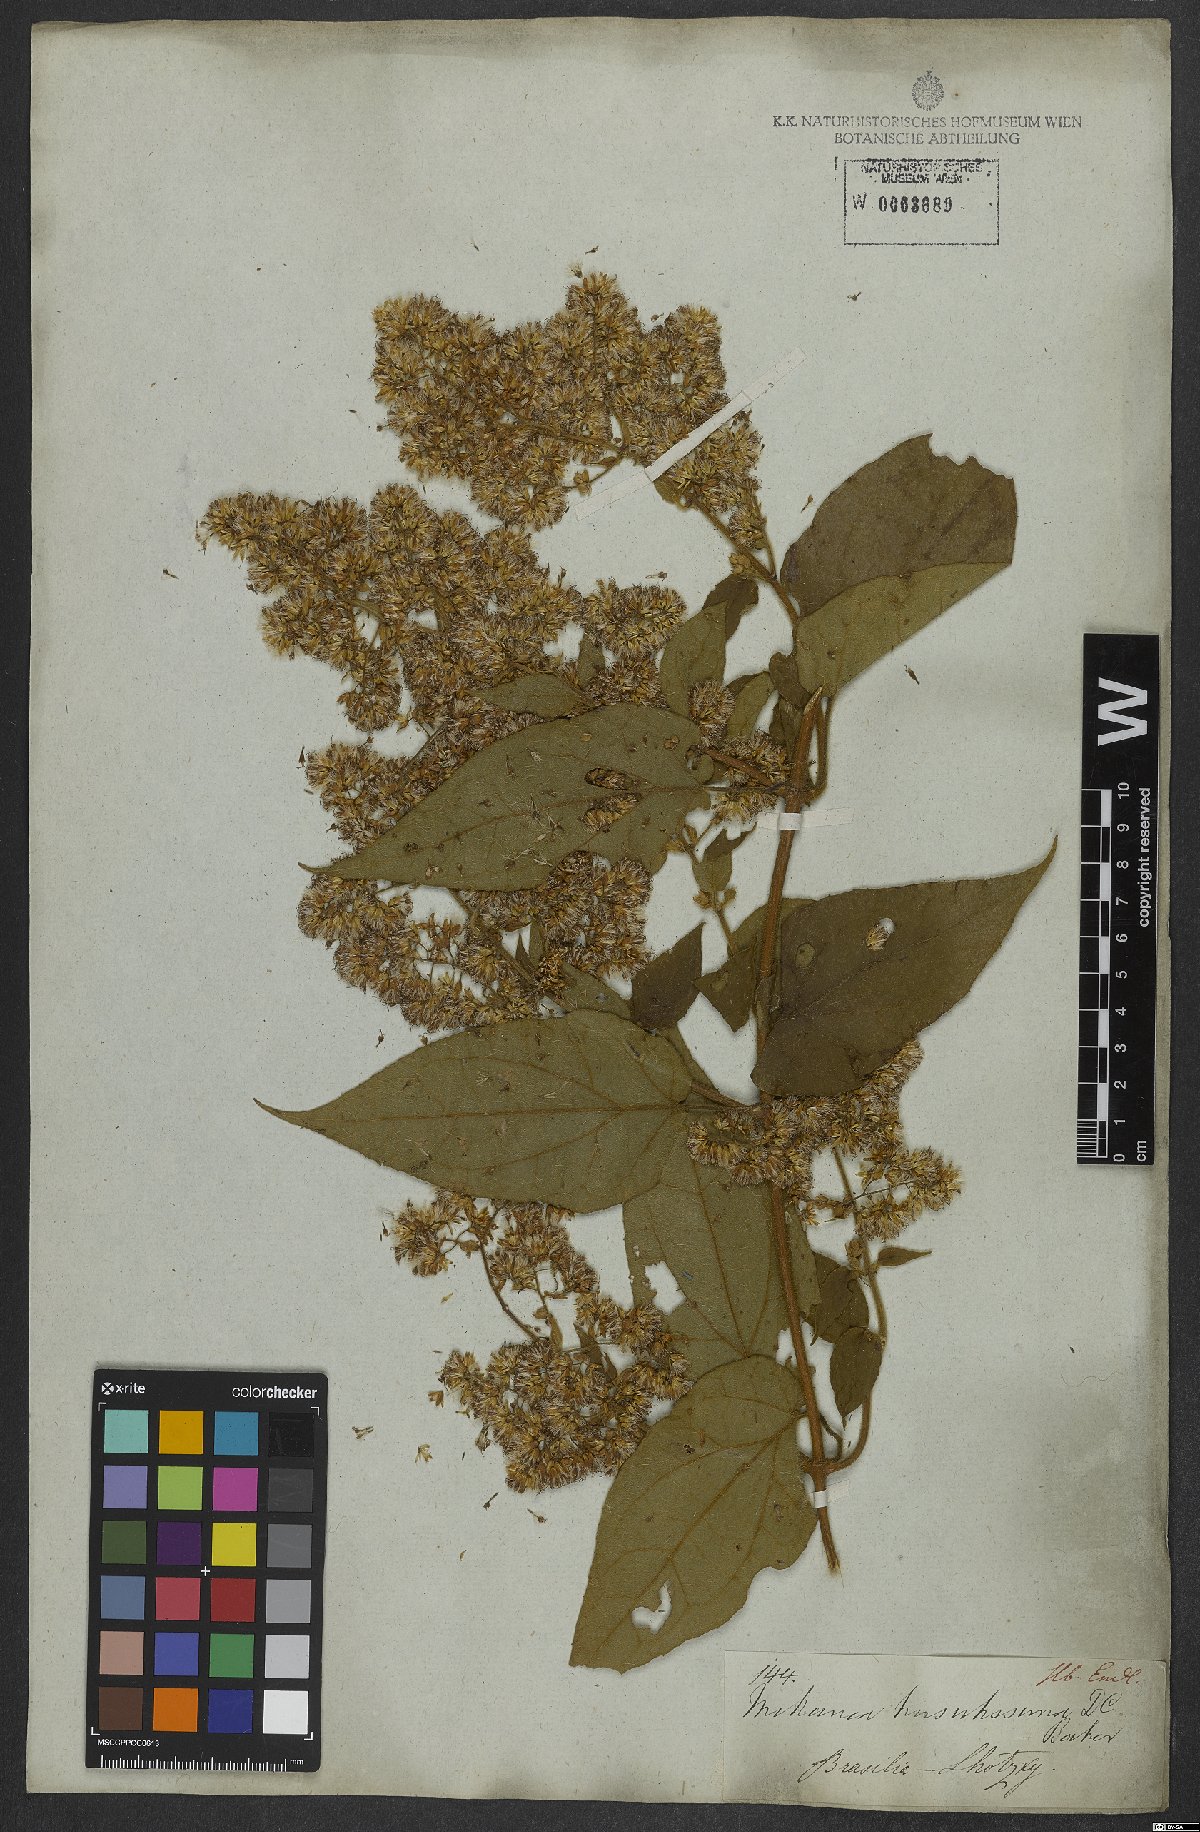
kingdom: Plantae
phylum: Tracheophyta
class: Magnoliopsida
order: Asterales
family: Asteraceae
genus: Mikania
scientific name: Mikania banisteriae
